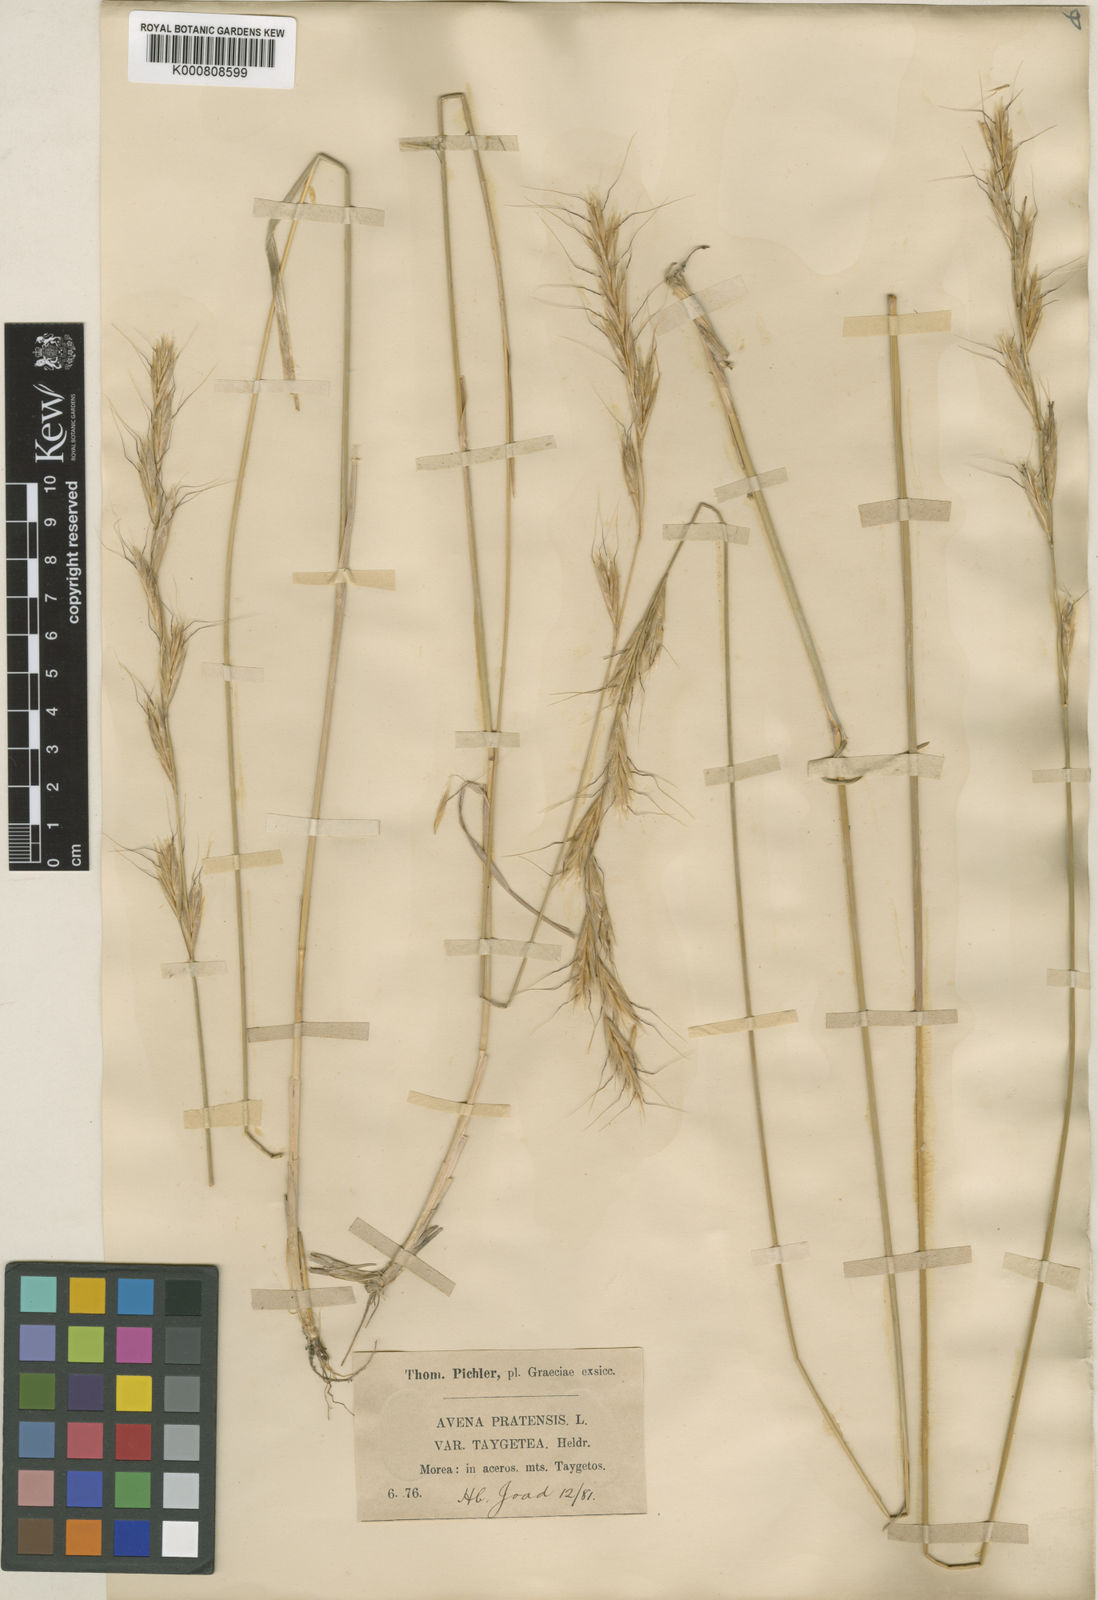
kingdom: Plantae
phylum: Tracheophyta
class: Liliopsida
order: Poales
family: Poaceae
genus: Helictochloa
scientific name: Helictochloa agropyroides
